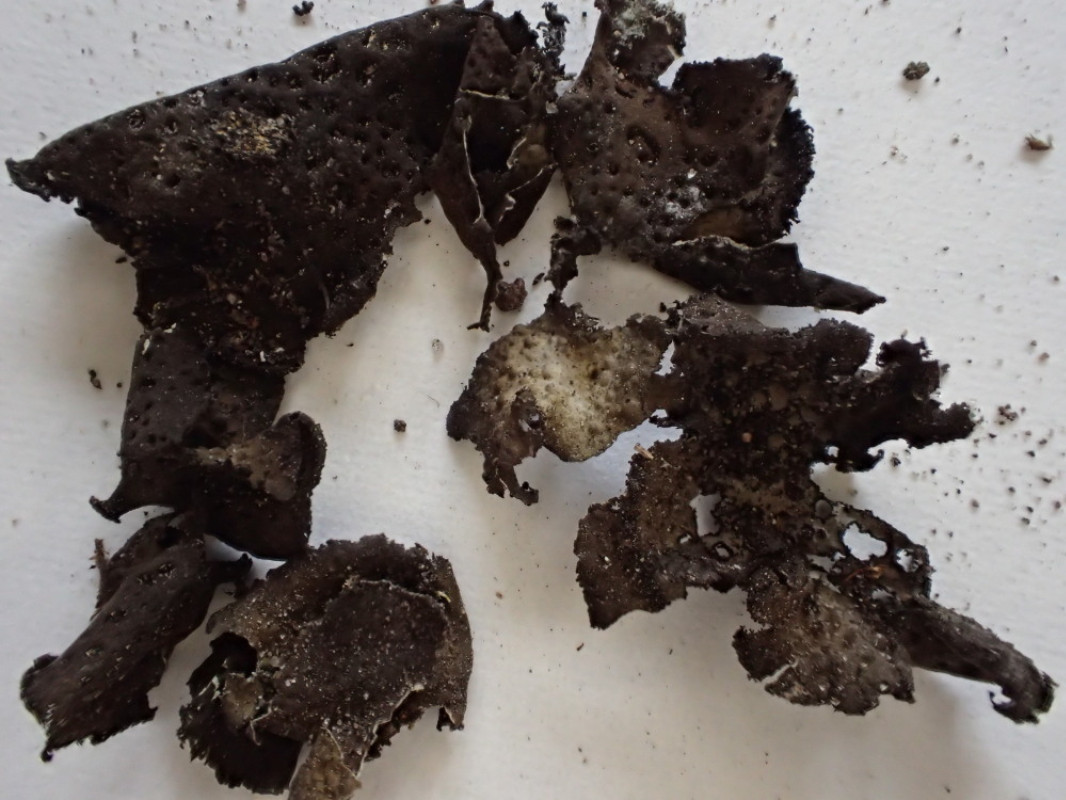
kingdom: Fungi
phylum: Ascomycota
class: Lecanoromycetes
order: Umbilicariales
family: Umbilicariaceae
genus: Lasallia
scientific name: Lasallia pustulata
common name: buklet navlelav
